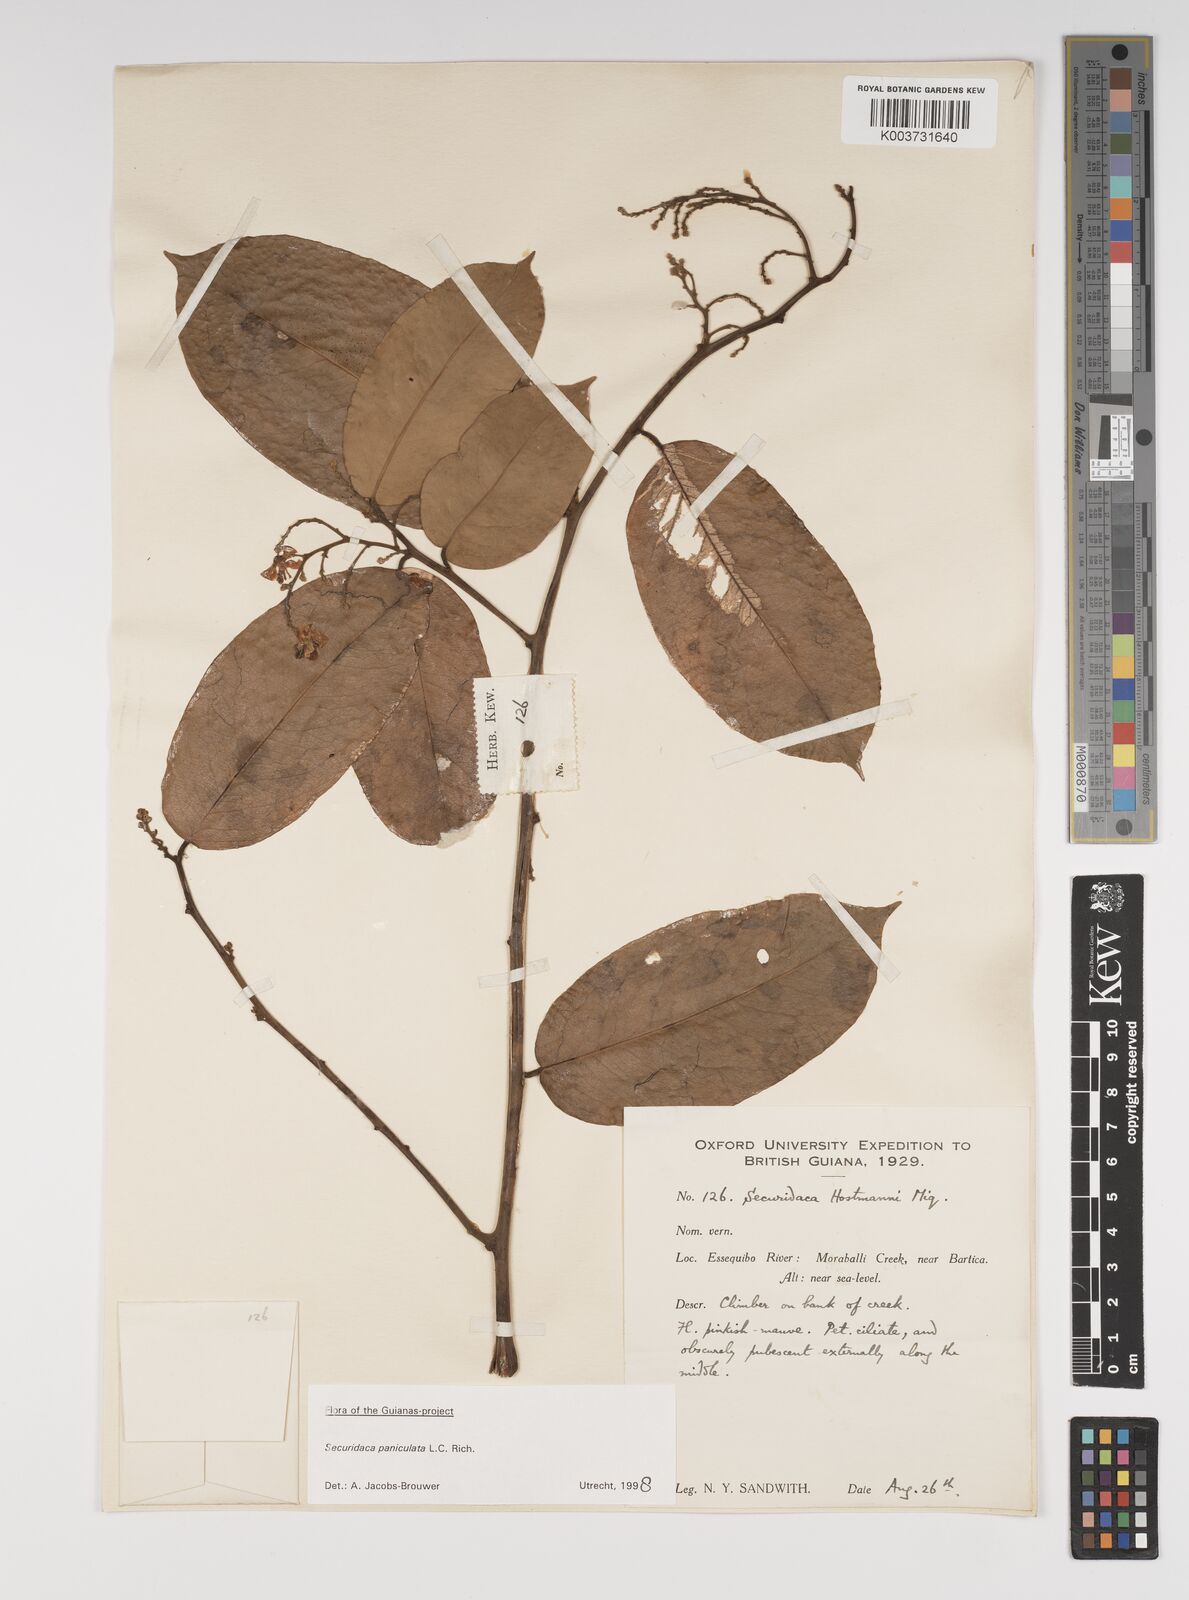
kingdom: Plantae
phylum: Tracheophyta
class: Magnoliopsida
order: Fabales
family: Polygalaceae
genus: Securidaca
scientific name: Securidaca paniculata
